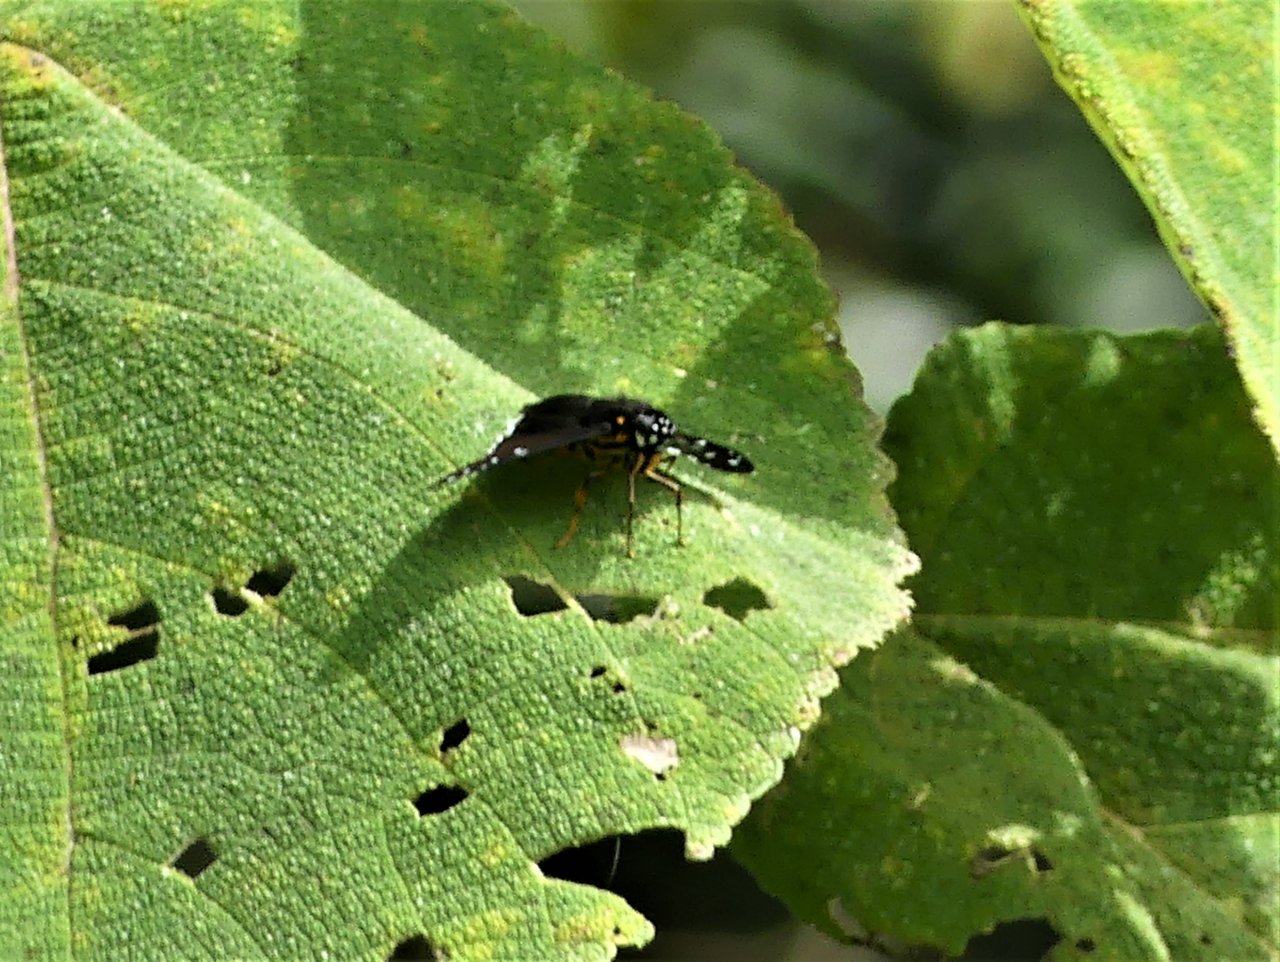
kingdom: Animalia
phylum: Arthropoda
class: Insecta
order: Lepidoptera
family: Hesperiidae
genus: Melanopyge
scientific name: Melanopyge
